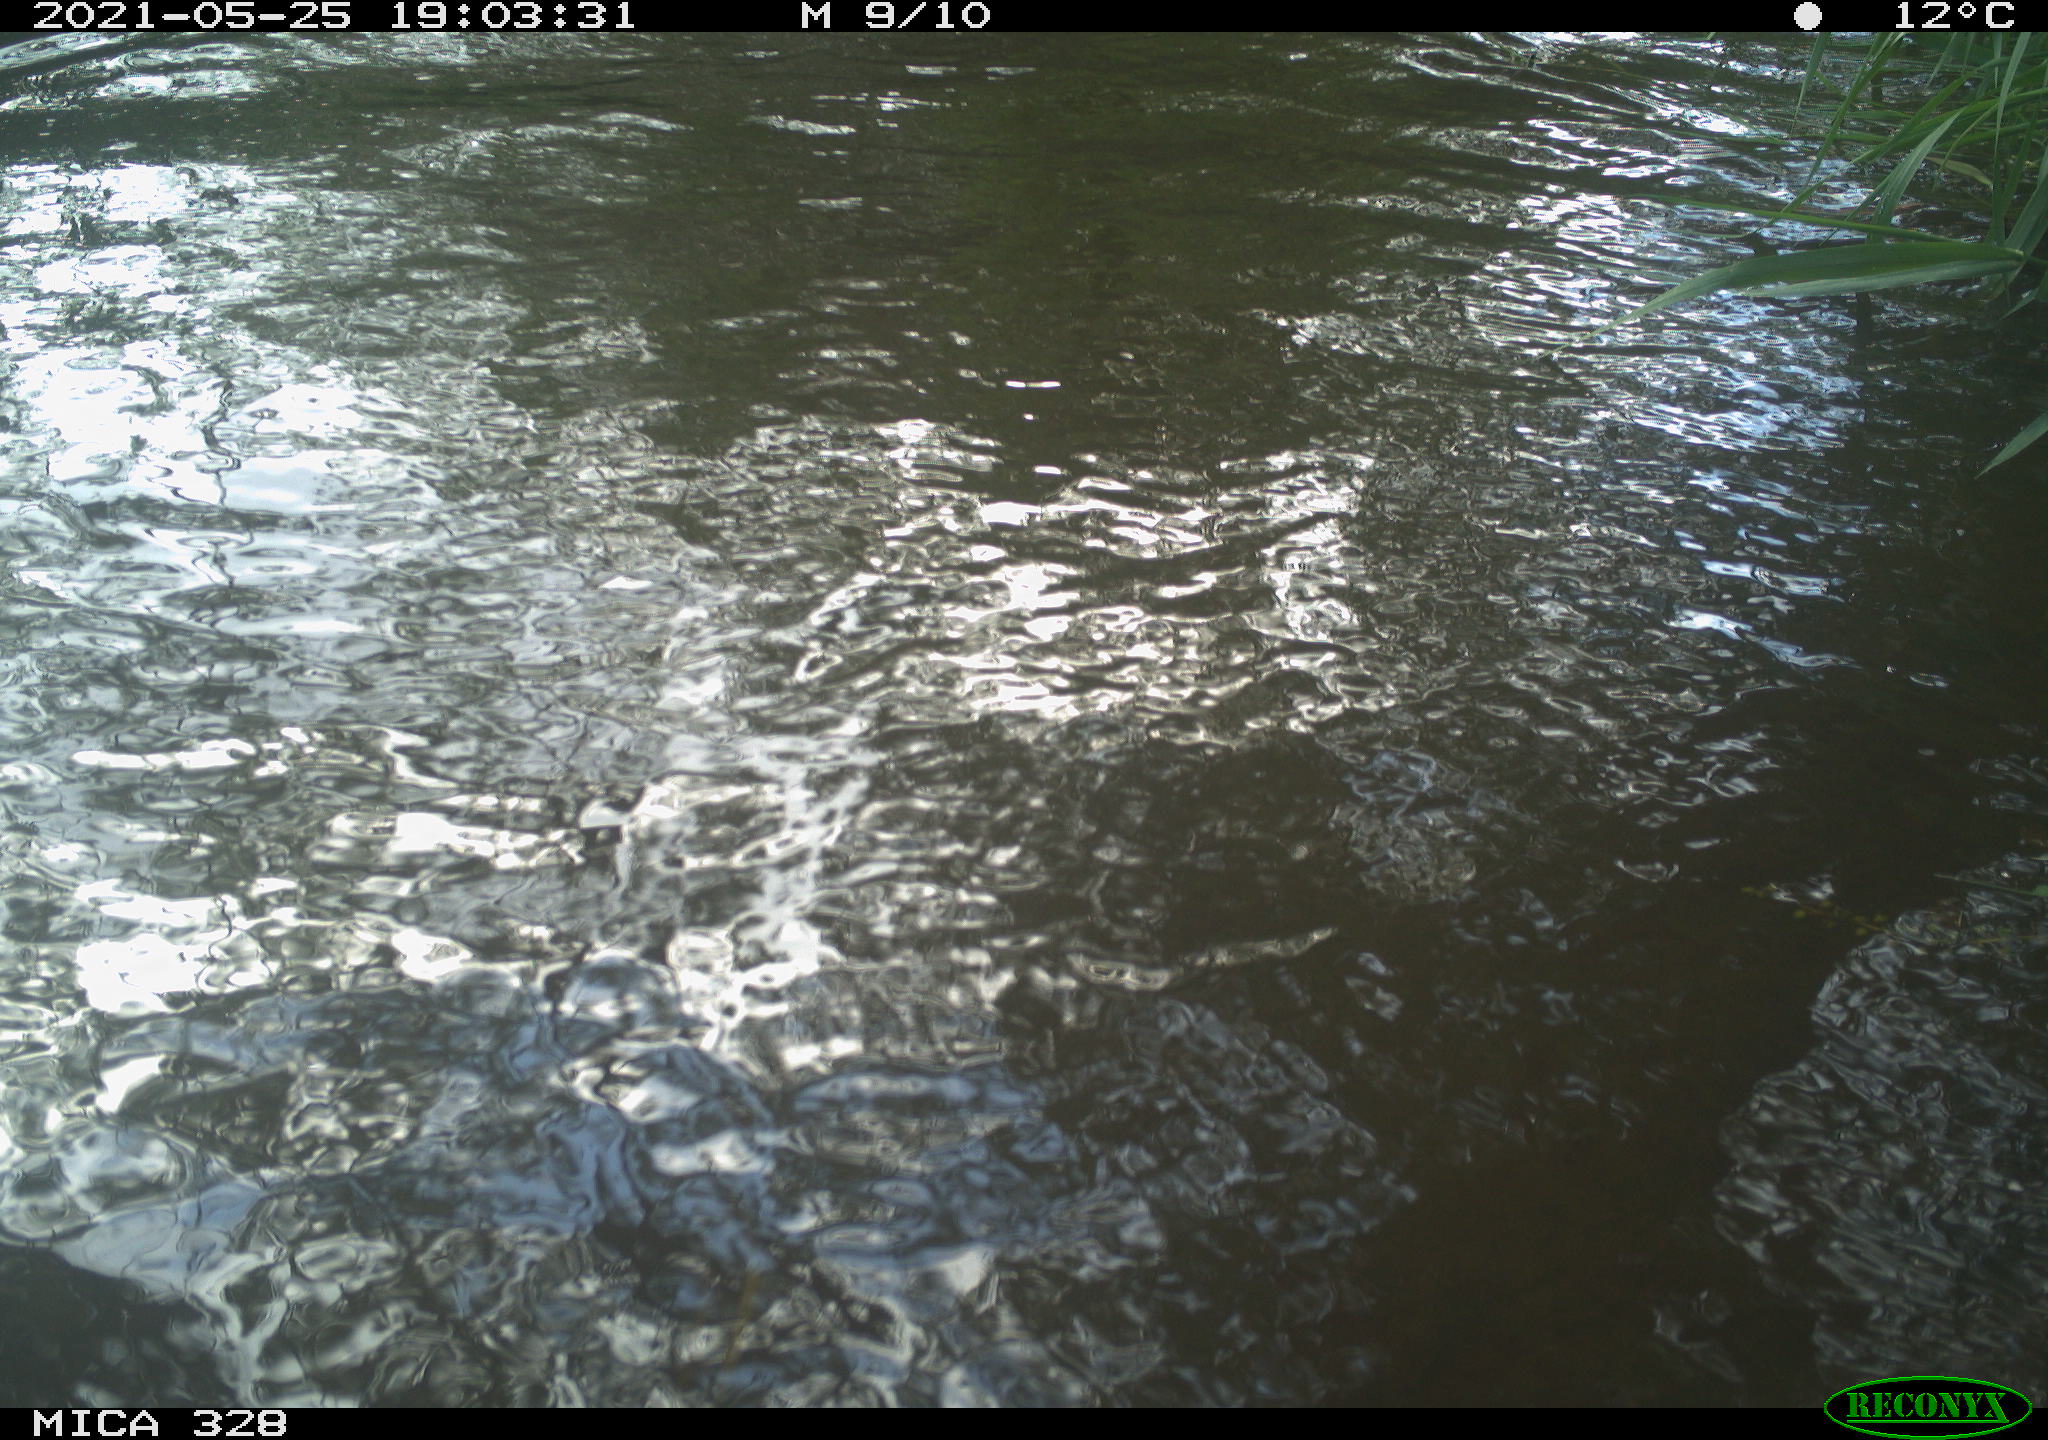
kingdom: Animalia
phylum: Chordata
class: Aves
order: Anseriformes
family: Anatidae
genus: Aix
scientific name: Aix galericulata
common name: Mandarin duck
